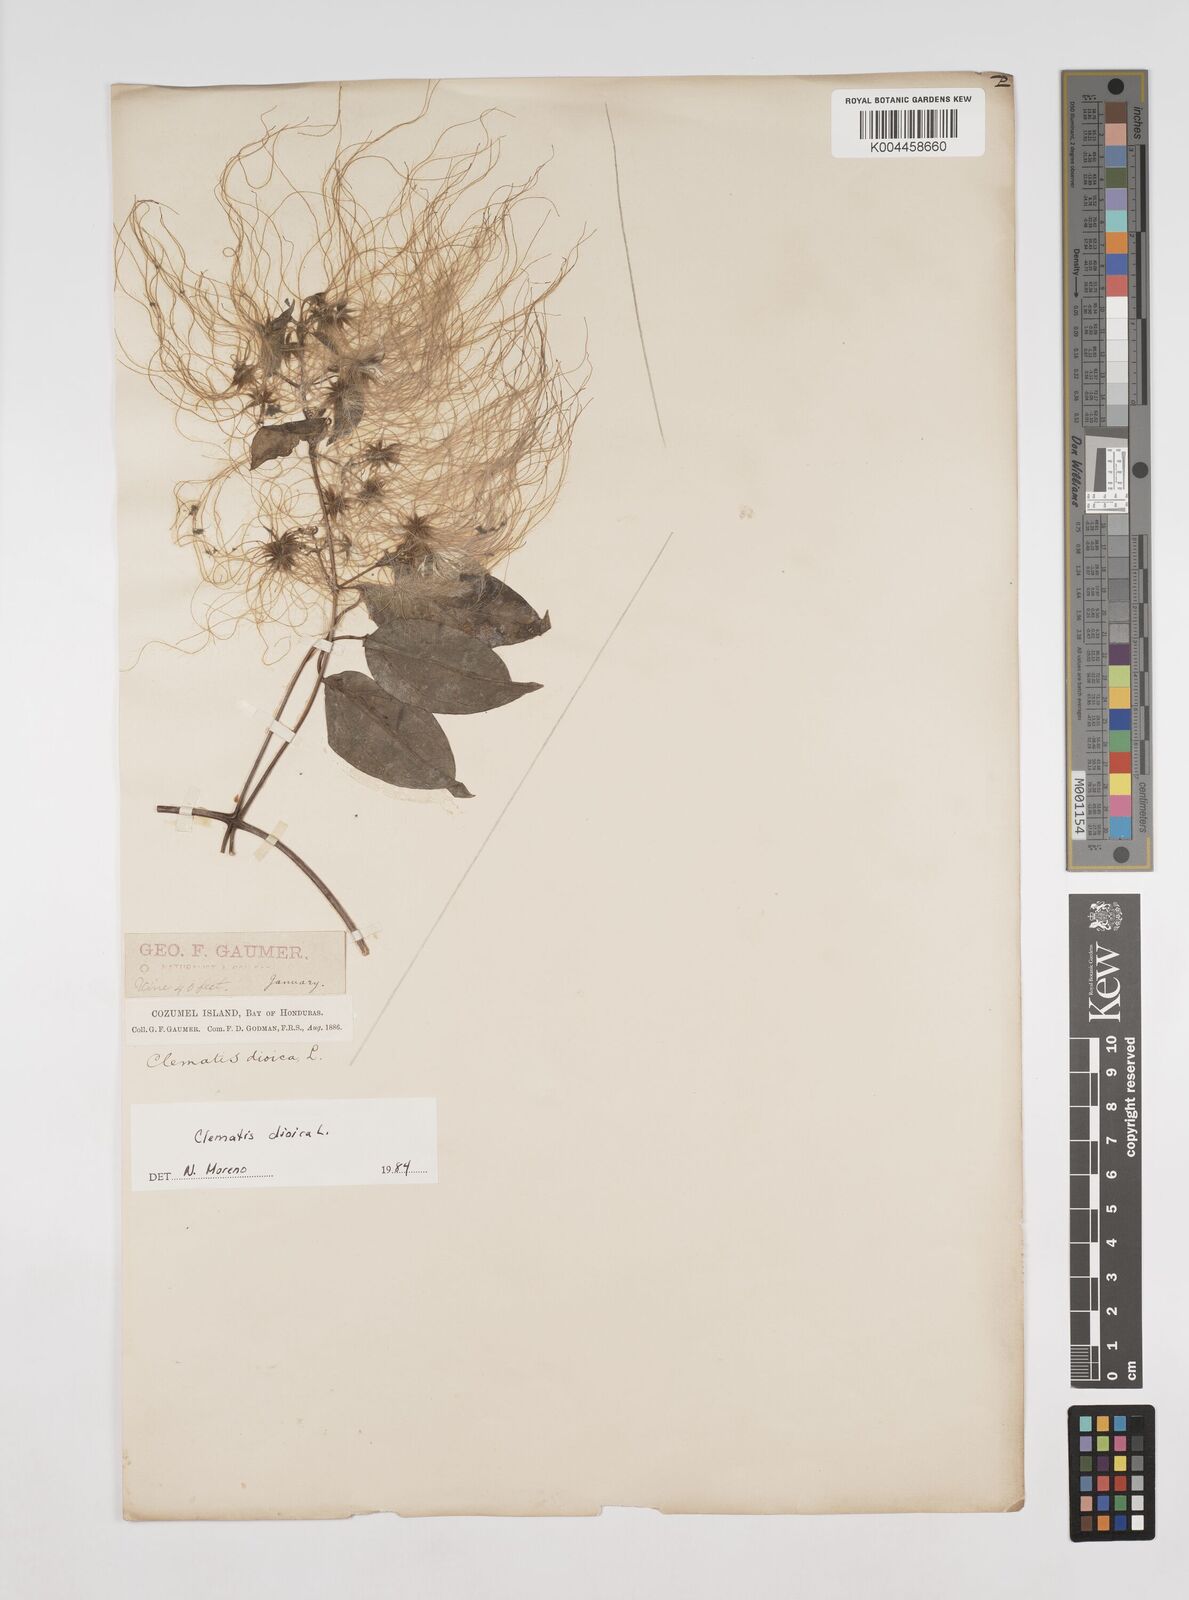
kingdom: Plantae
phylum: Tracheophyta
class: Magnoliopsida
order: Ranunculales
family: Ranunculaceae
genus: Clematis
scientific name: Clematis dioica
